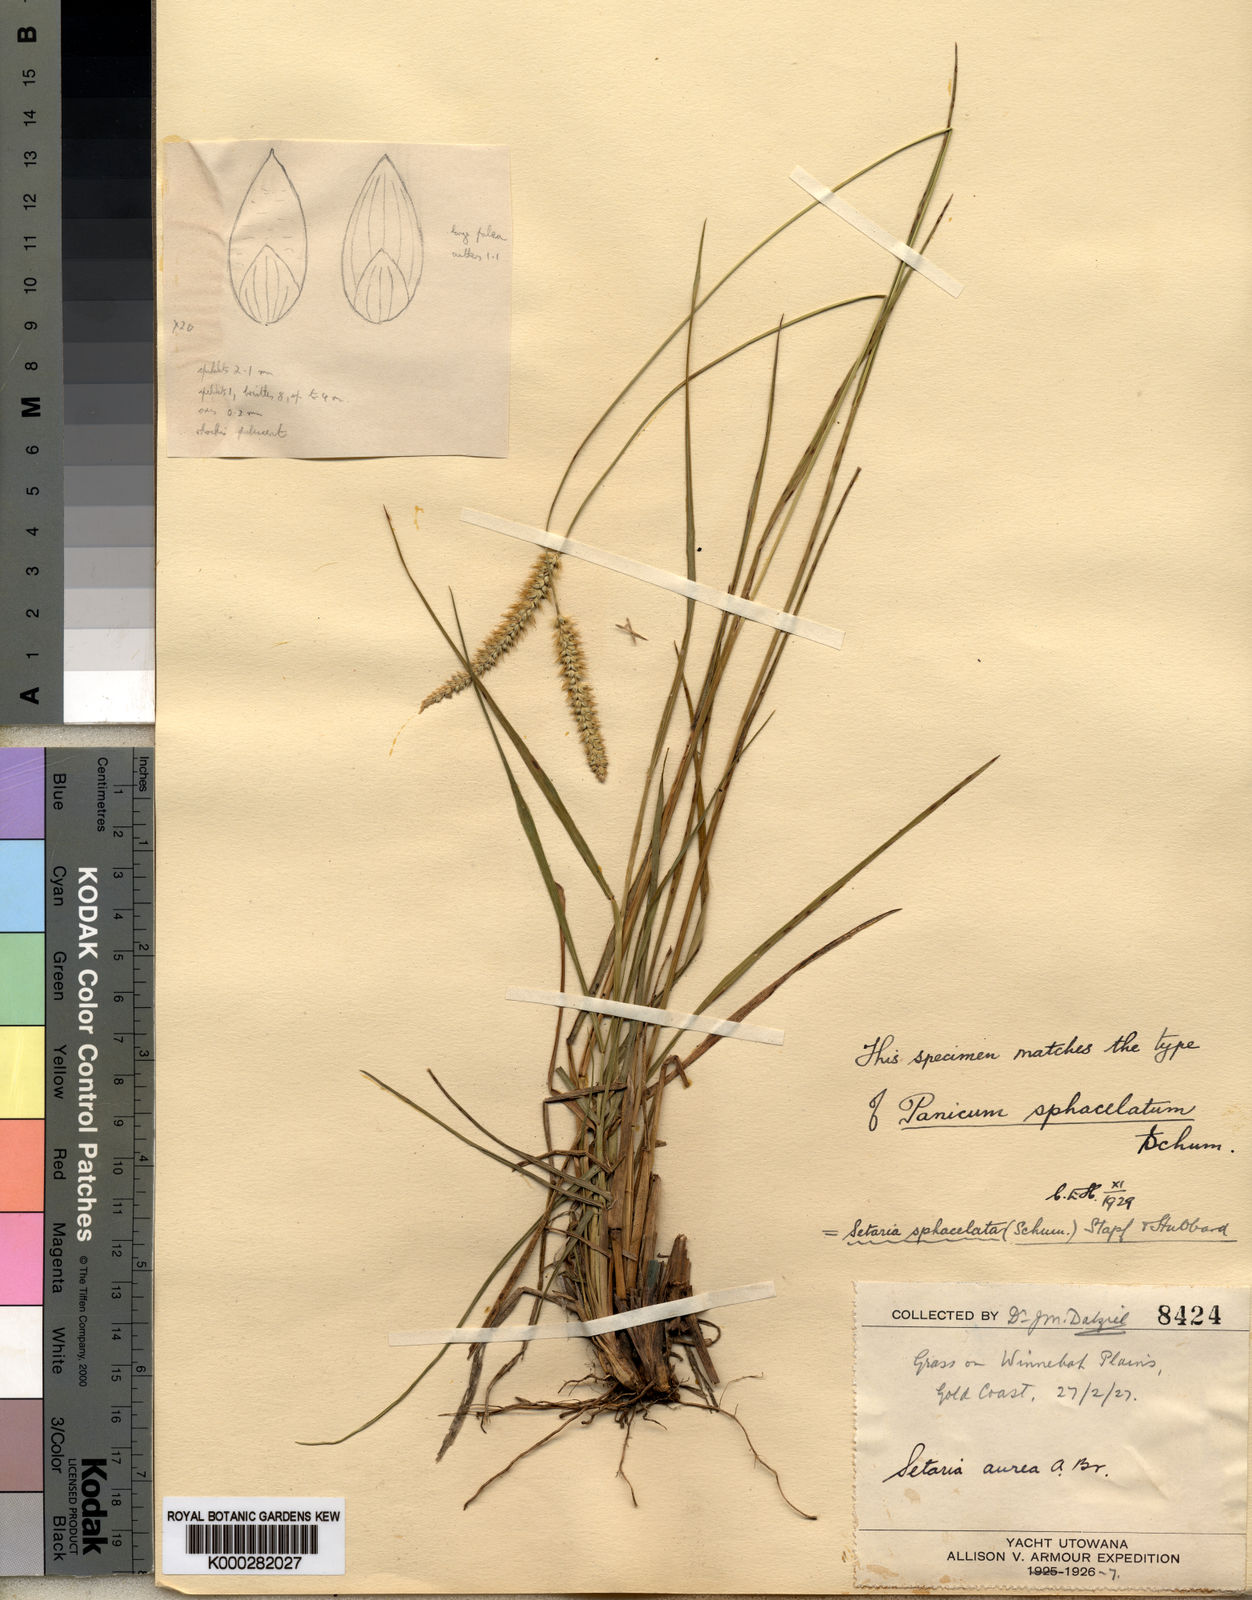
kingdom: Plantae
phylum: Tracheophyta
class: Liliopsida
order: Poales
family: Poaceae
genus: Setaria
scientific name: Setaria sphacelata
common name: African bristlegrass
